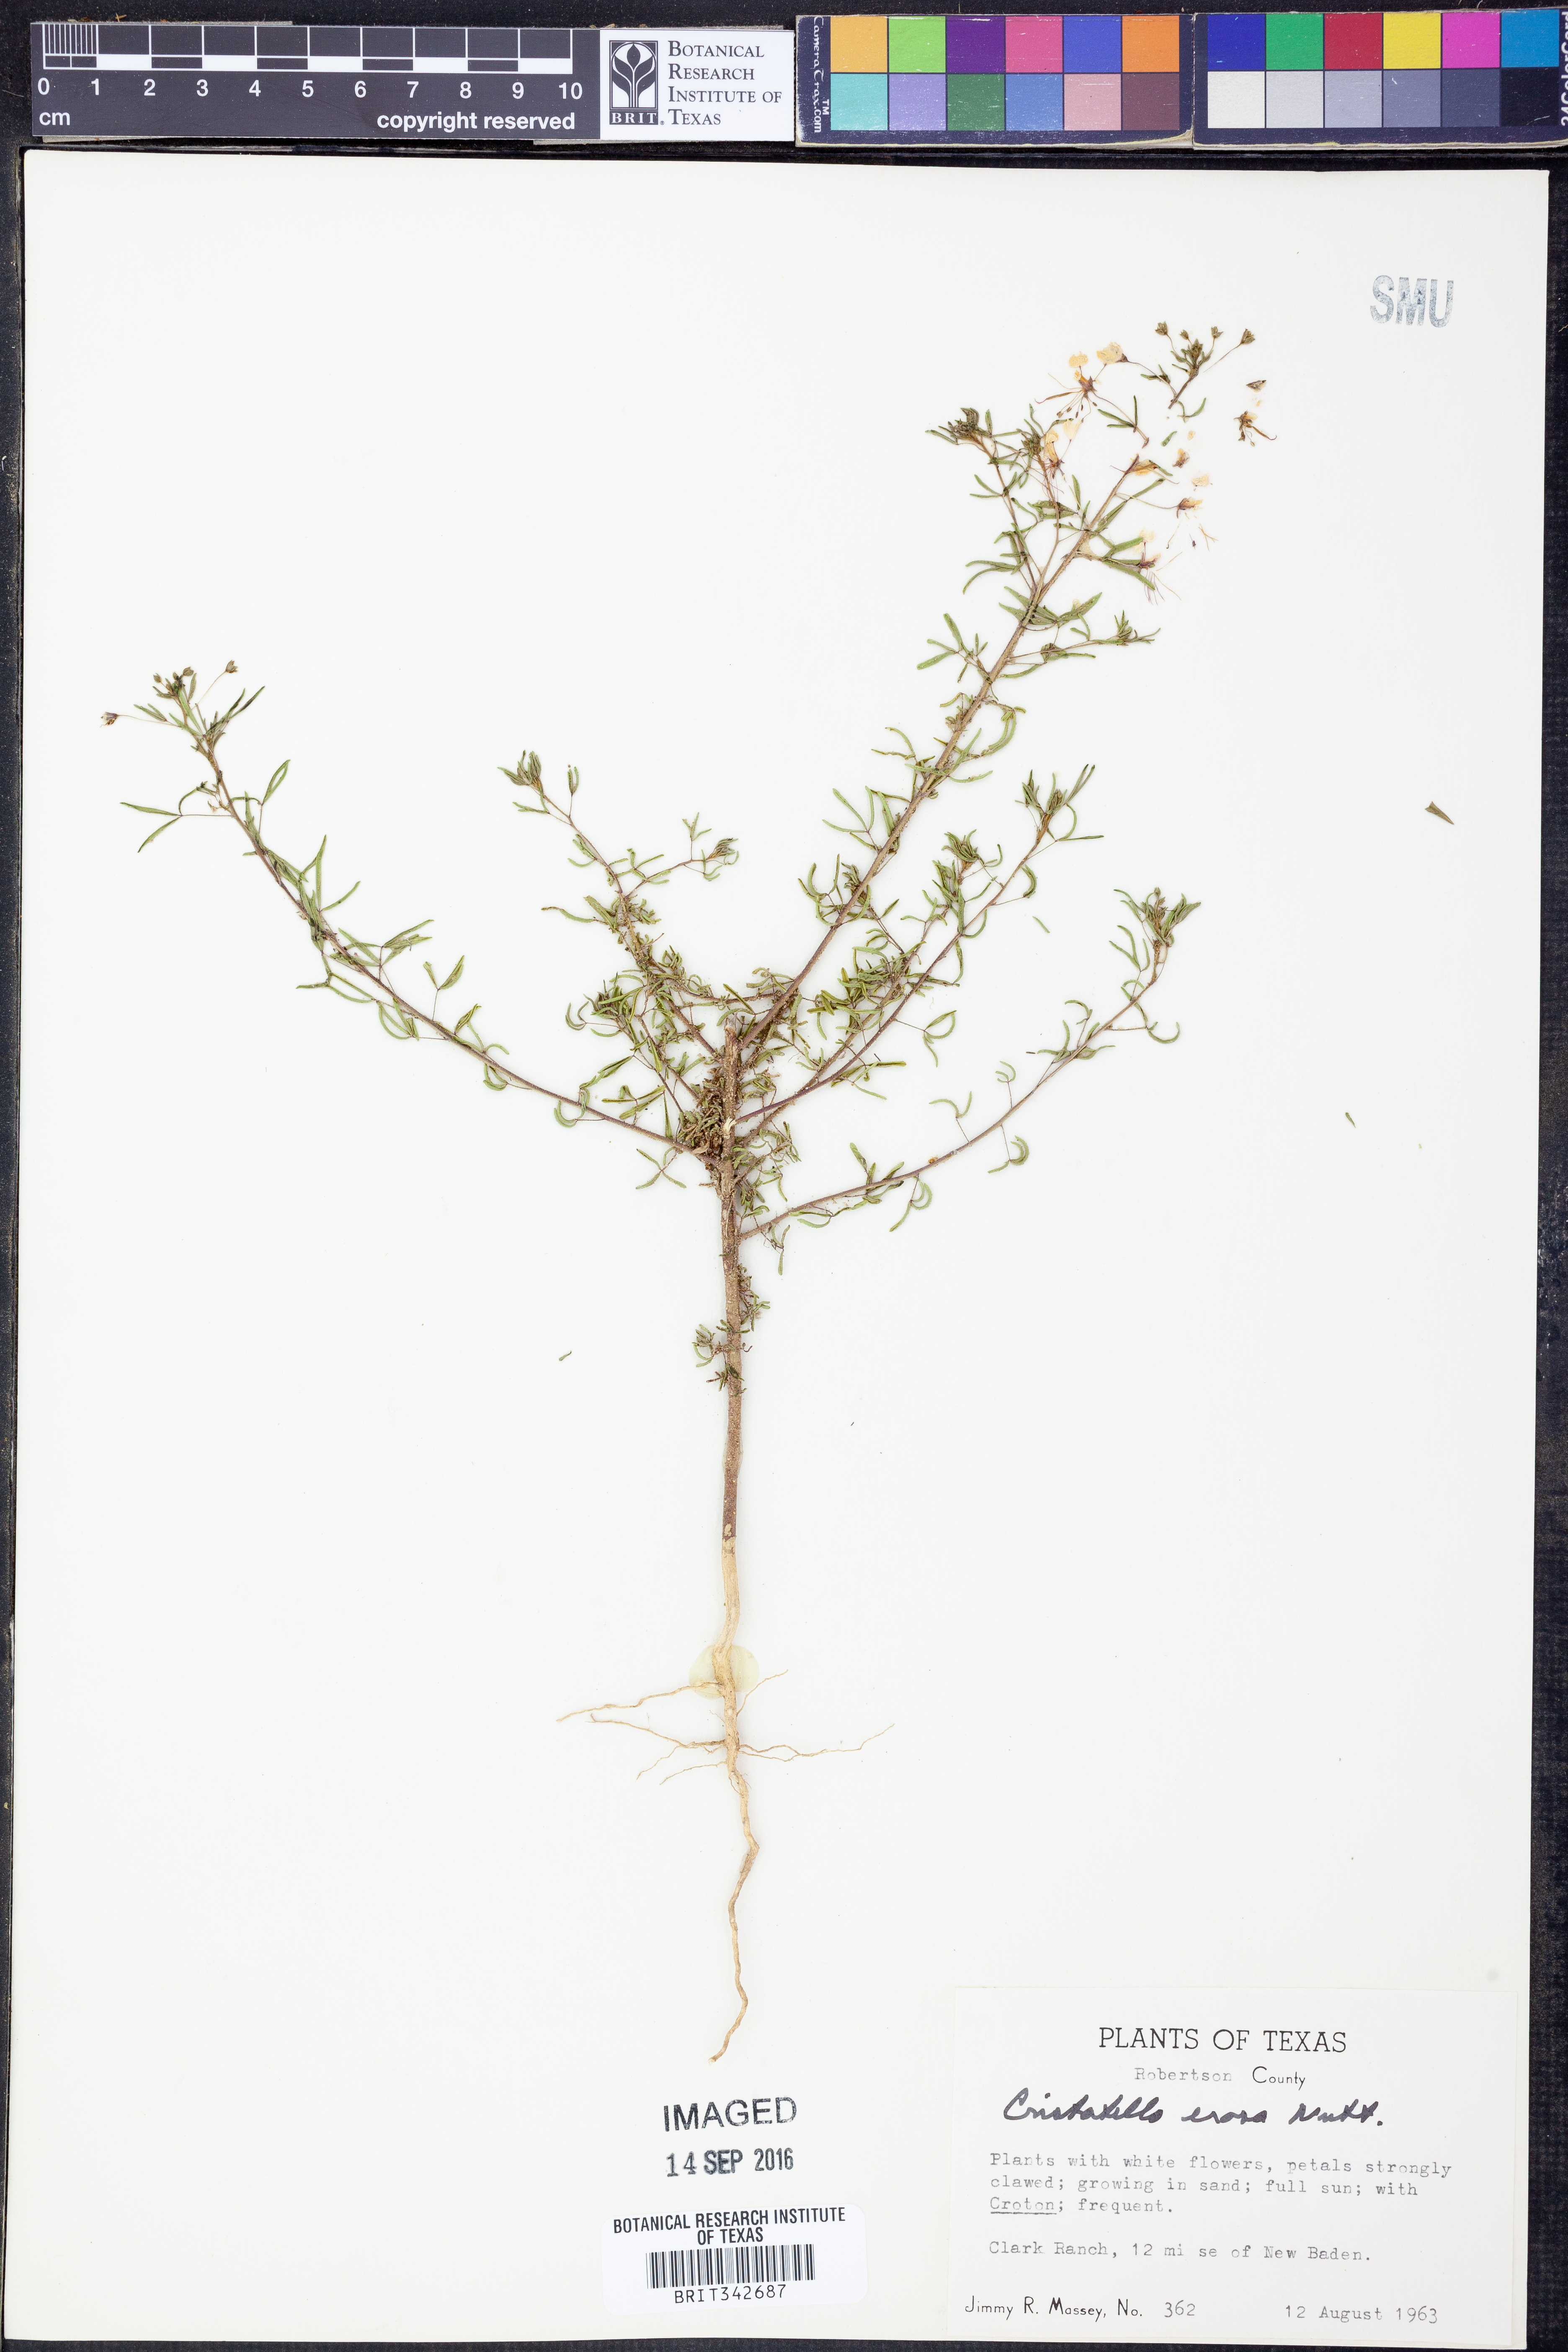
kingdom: Plantae
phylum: Tracheophyta
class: Magnoliopsida
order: Brassicales
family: Cleomaceae
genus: Polanisia
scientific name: Polanisia erosa
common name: Large clammyweed
